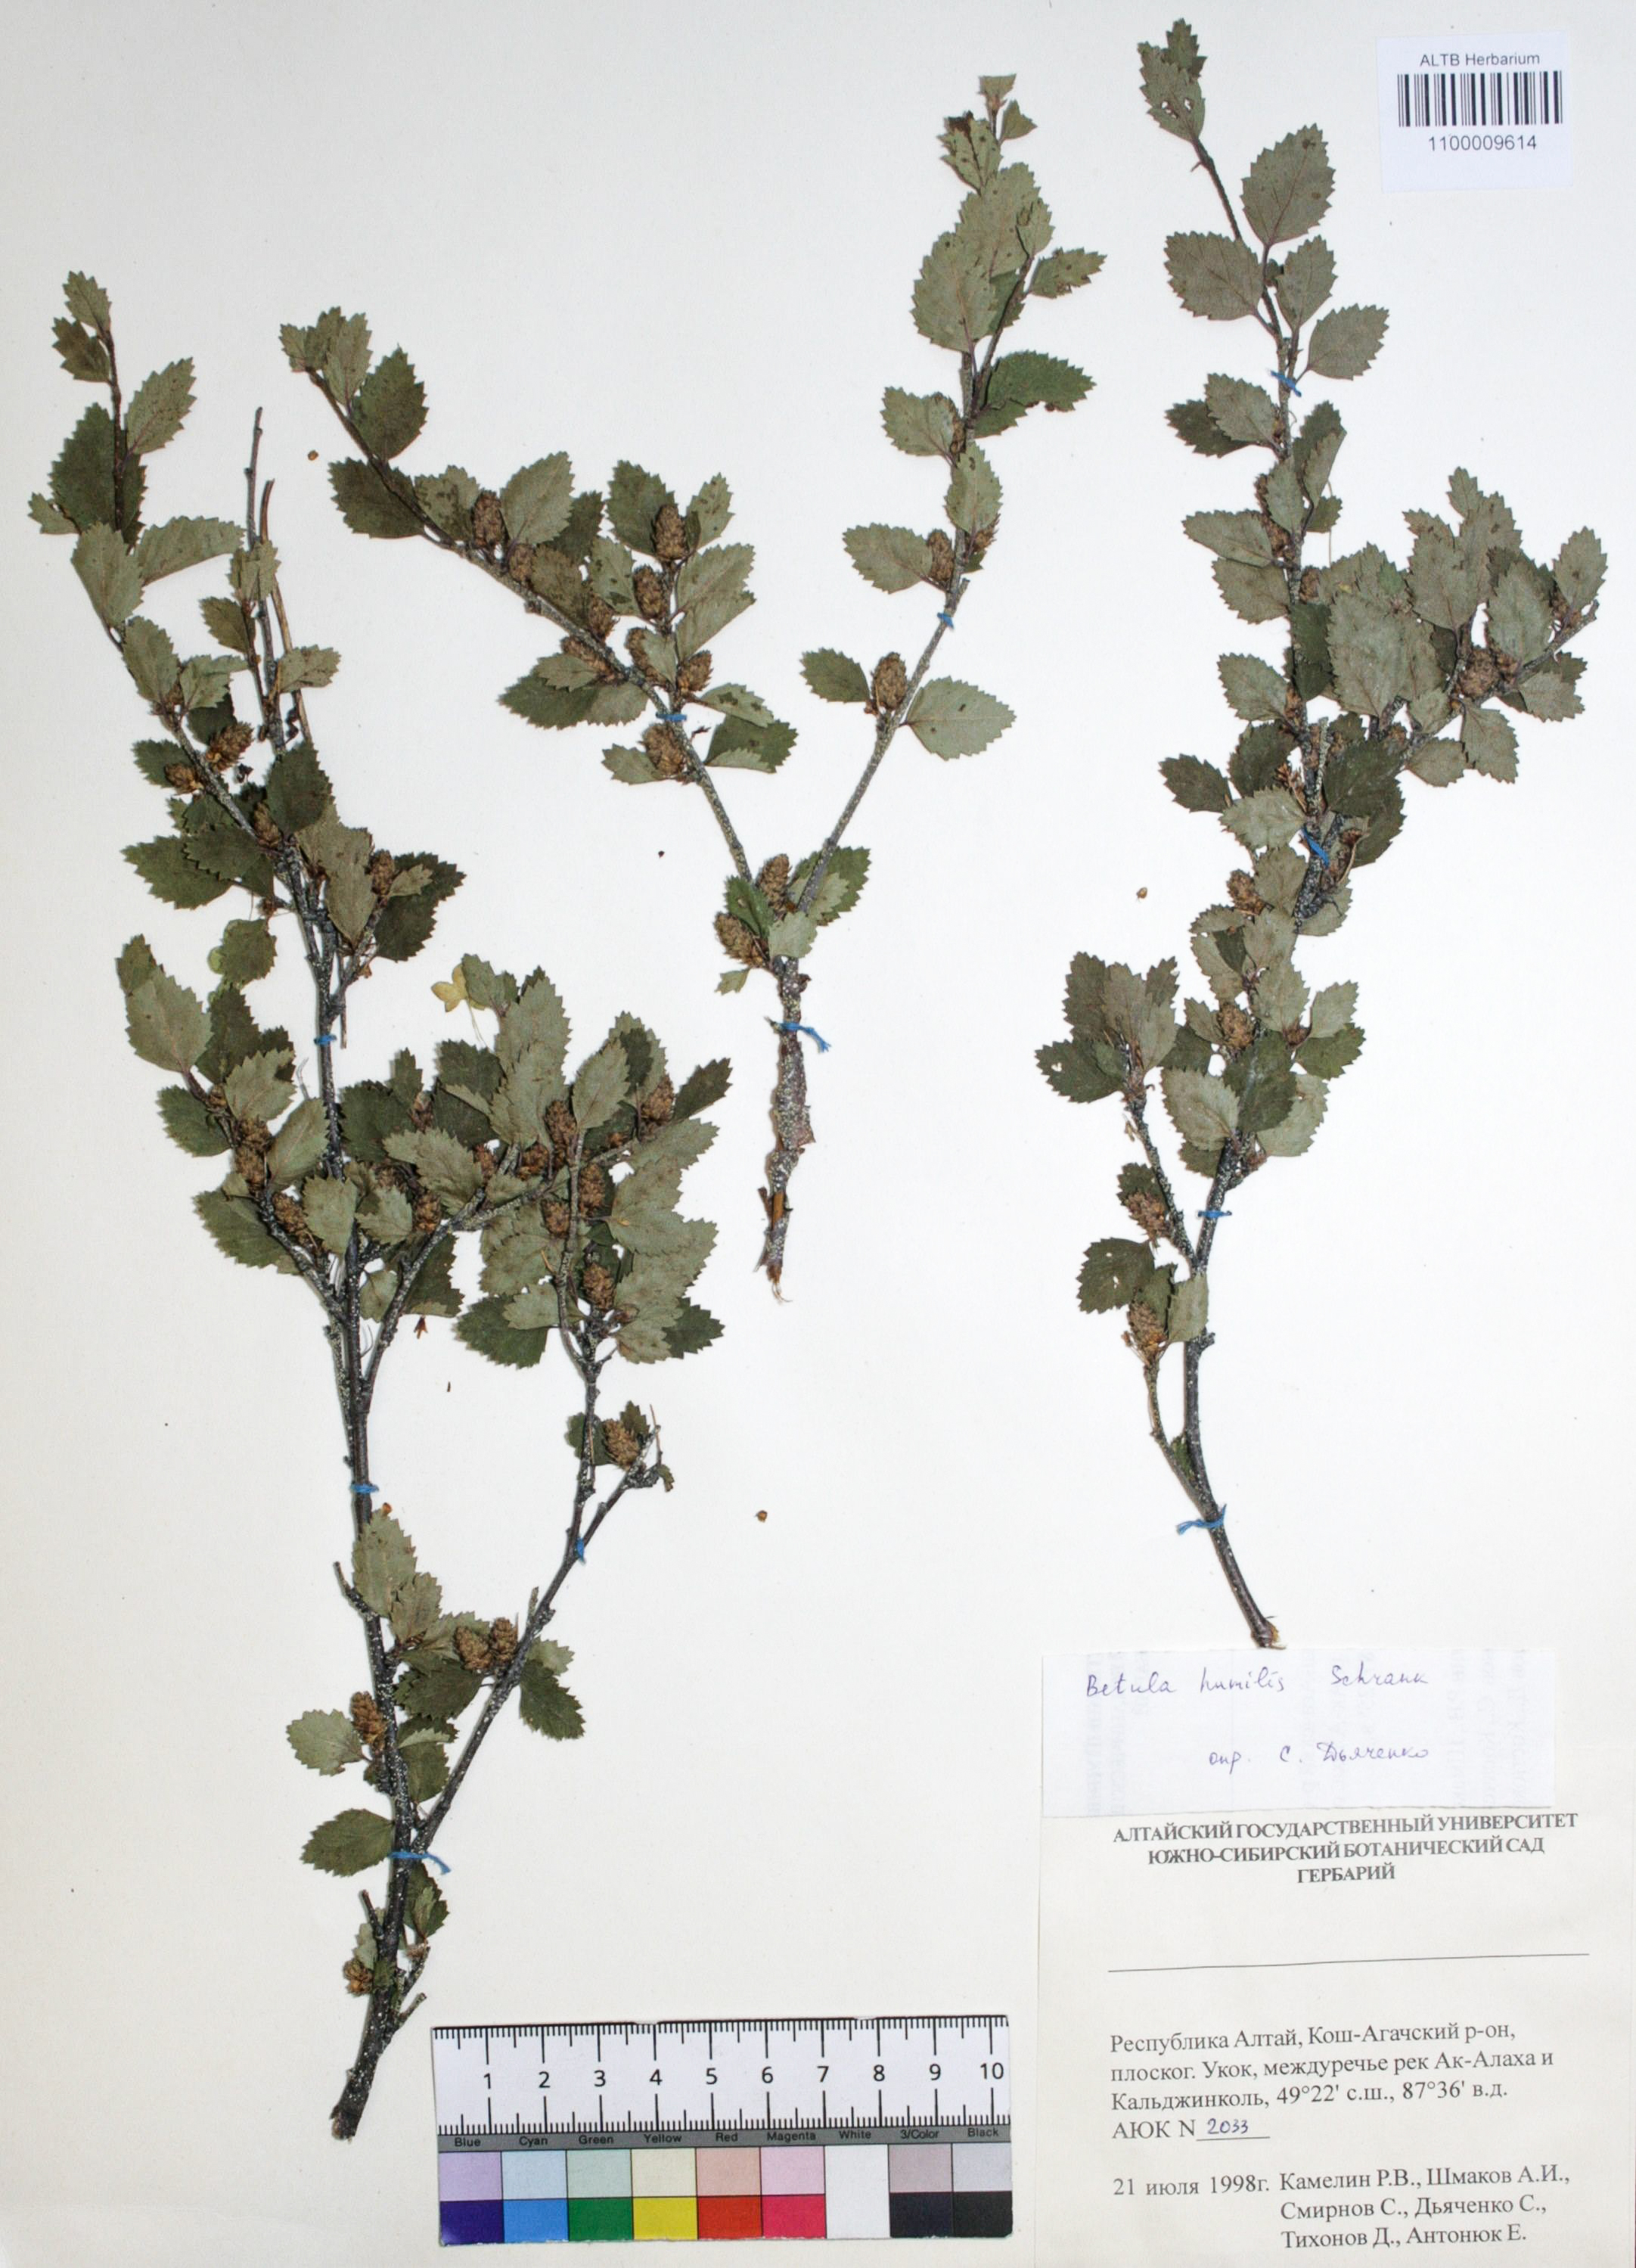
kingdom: Plantae
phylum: Tracheophyta
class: Magnoliopsida
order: Fagales
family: Betulaceae
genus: Betula
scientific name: Betula humilis
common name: Shrubby birch
